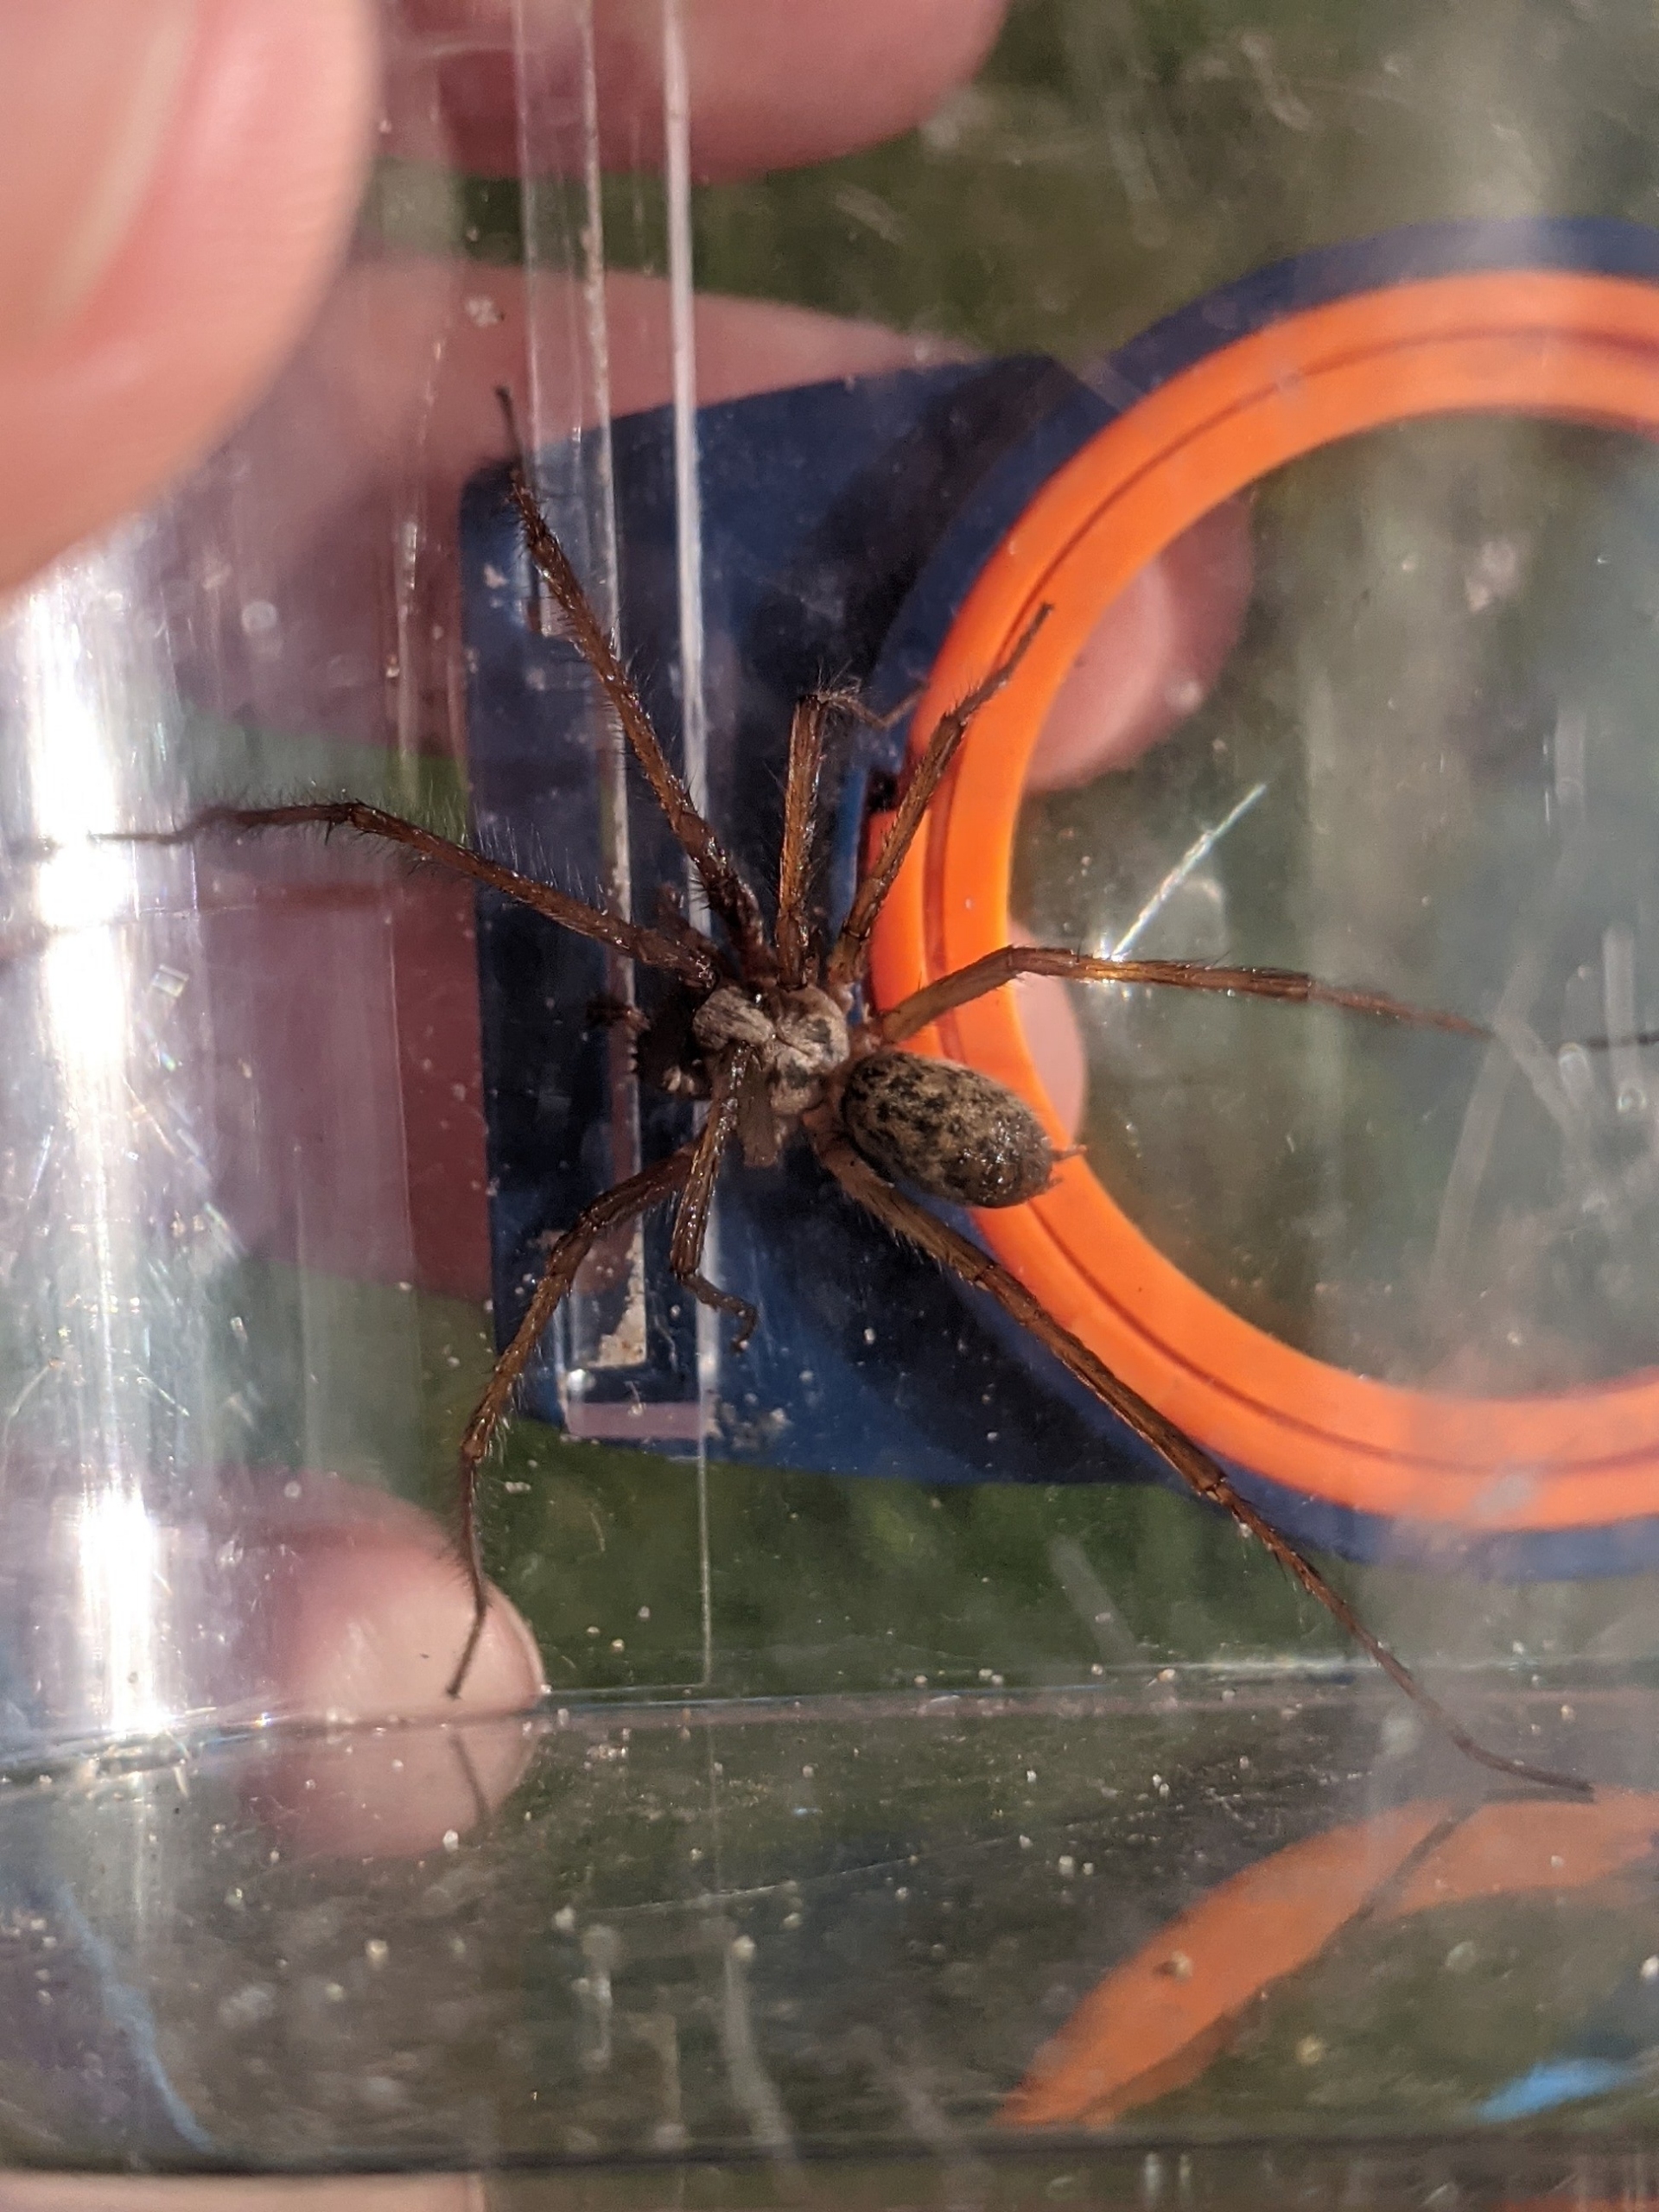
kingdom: Animalia
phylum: Arthropoda
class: Arachnida
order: Araneae
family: Agelenidae
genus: Eratigena
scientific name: Eratigena atrica
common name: Stor husedderkop
